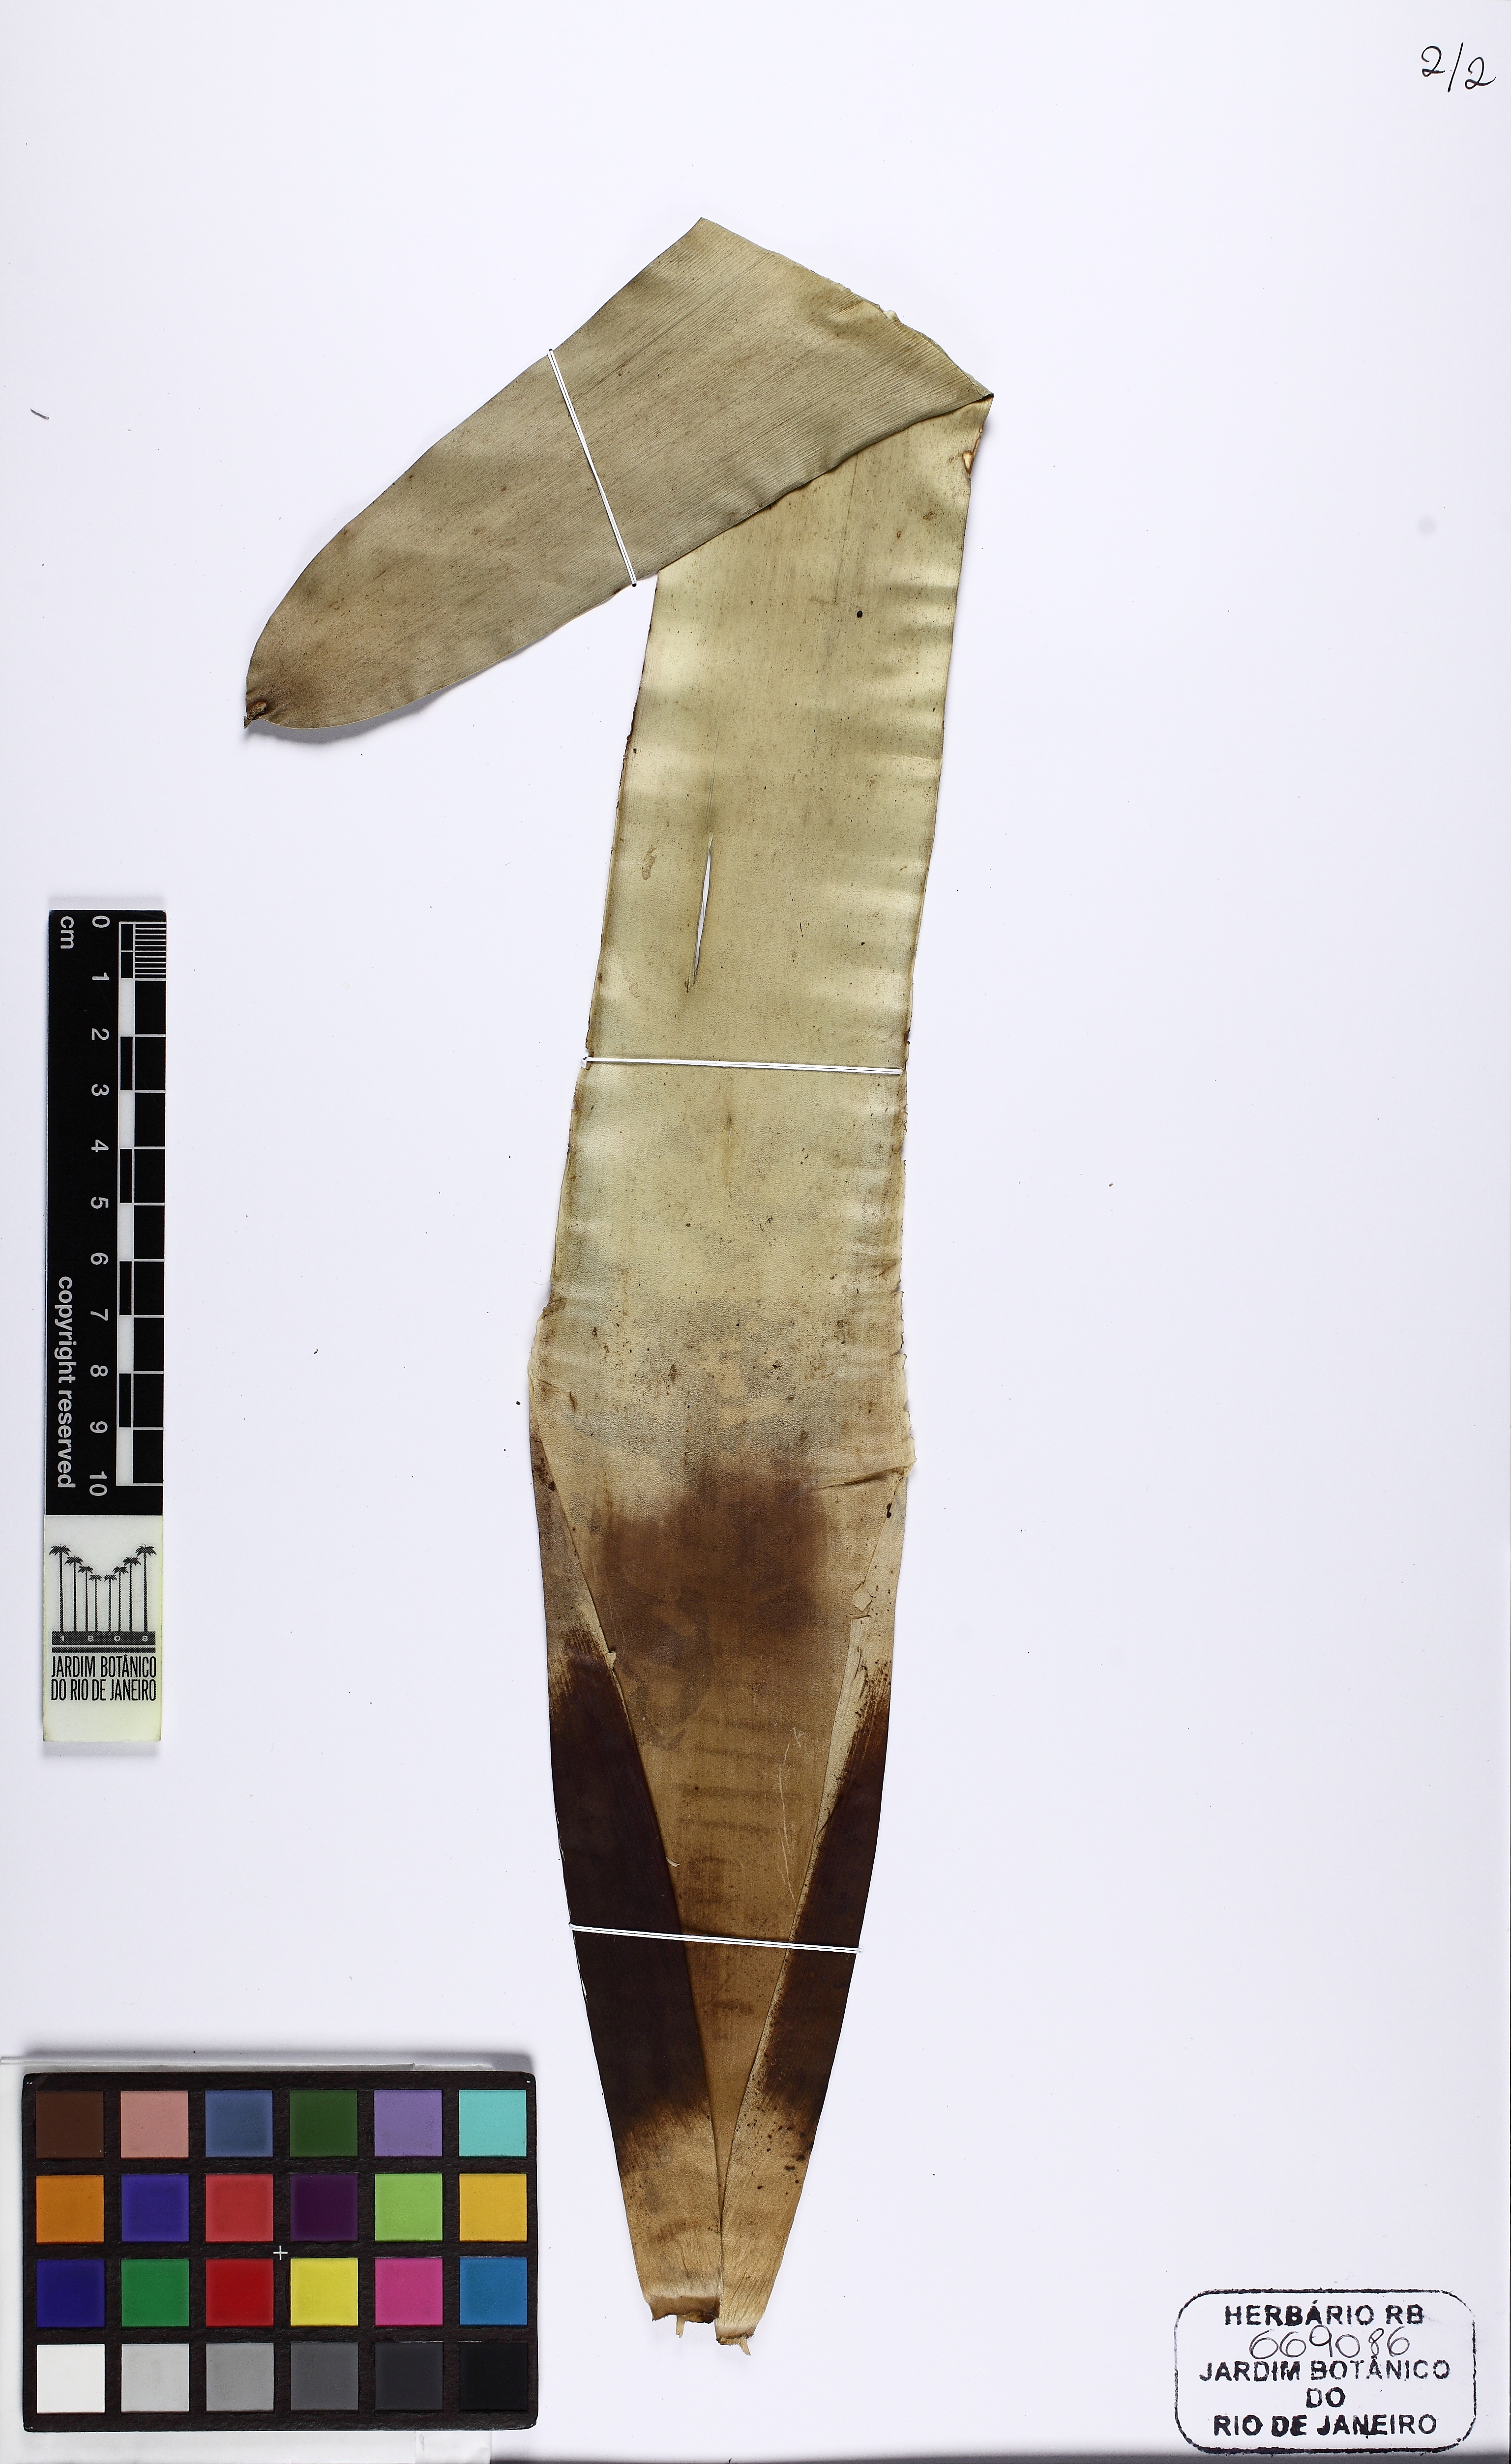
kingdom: Plantae
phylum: Tracheophyta
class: Liliopsida
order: Poales
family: Bromeliaceae
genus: Vriesea
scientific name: Vriesea
